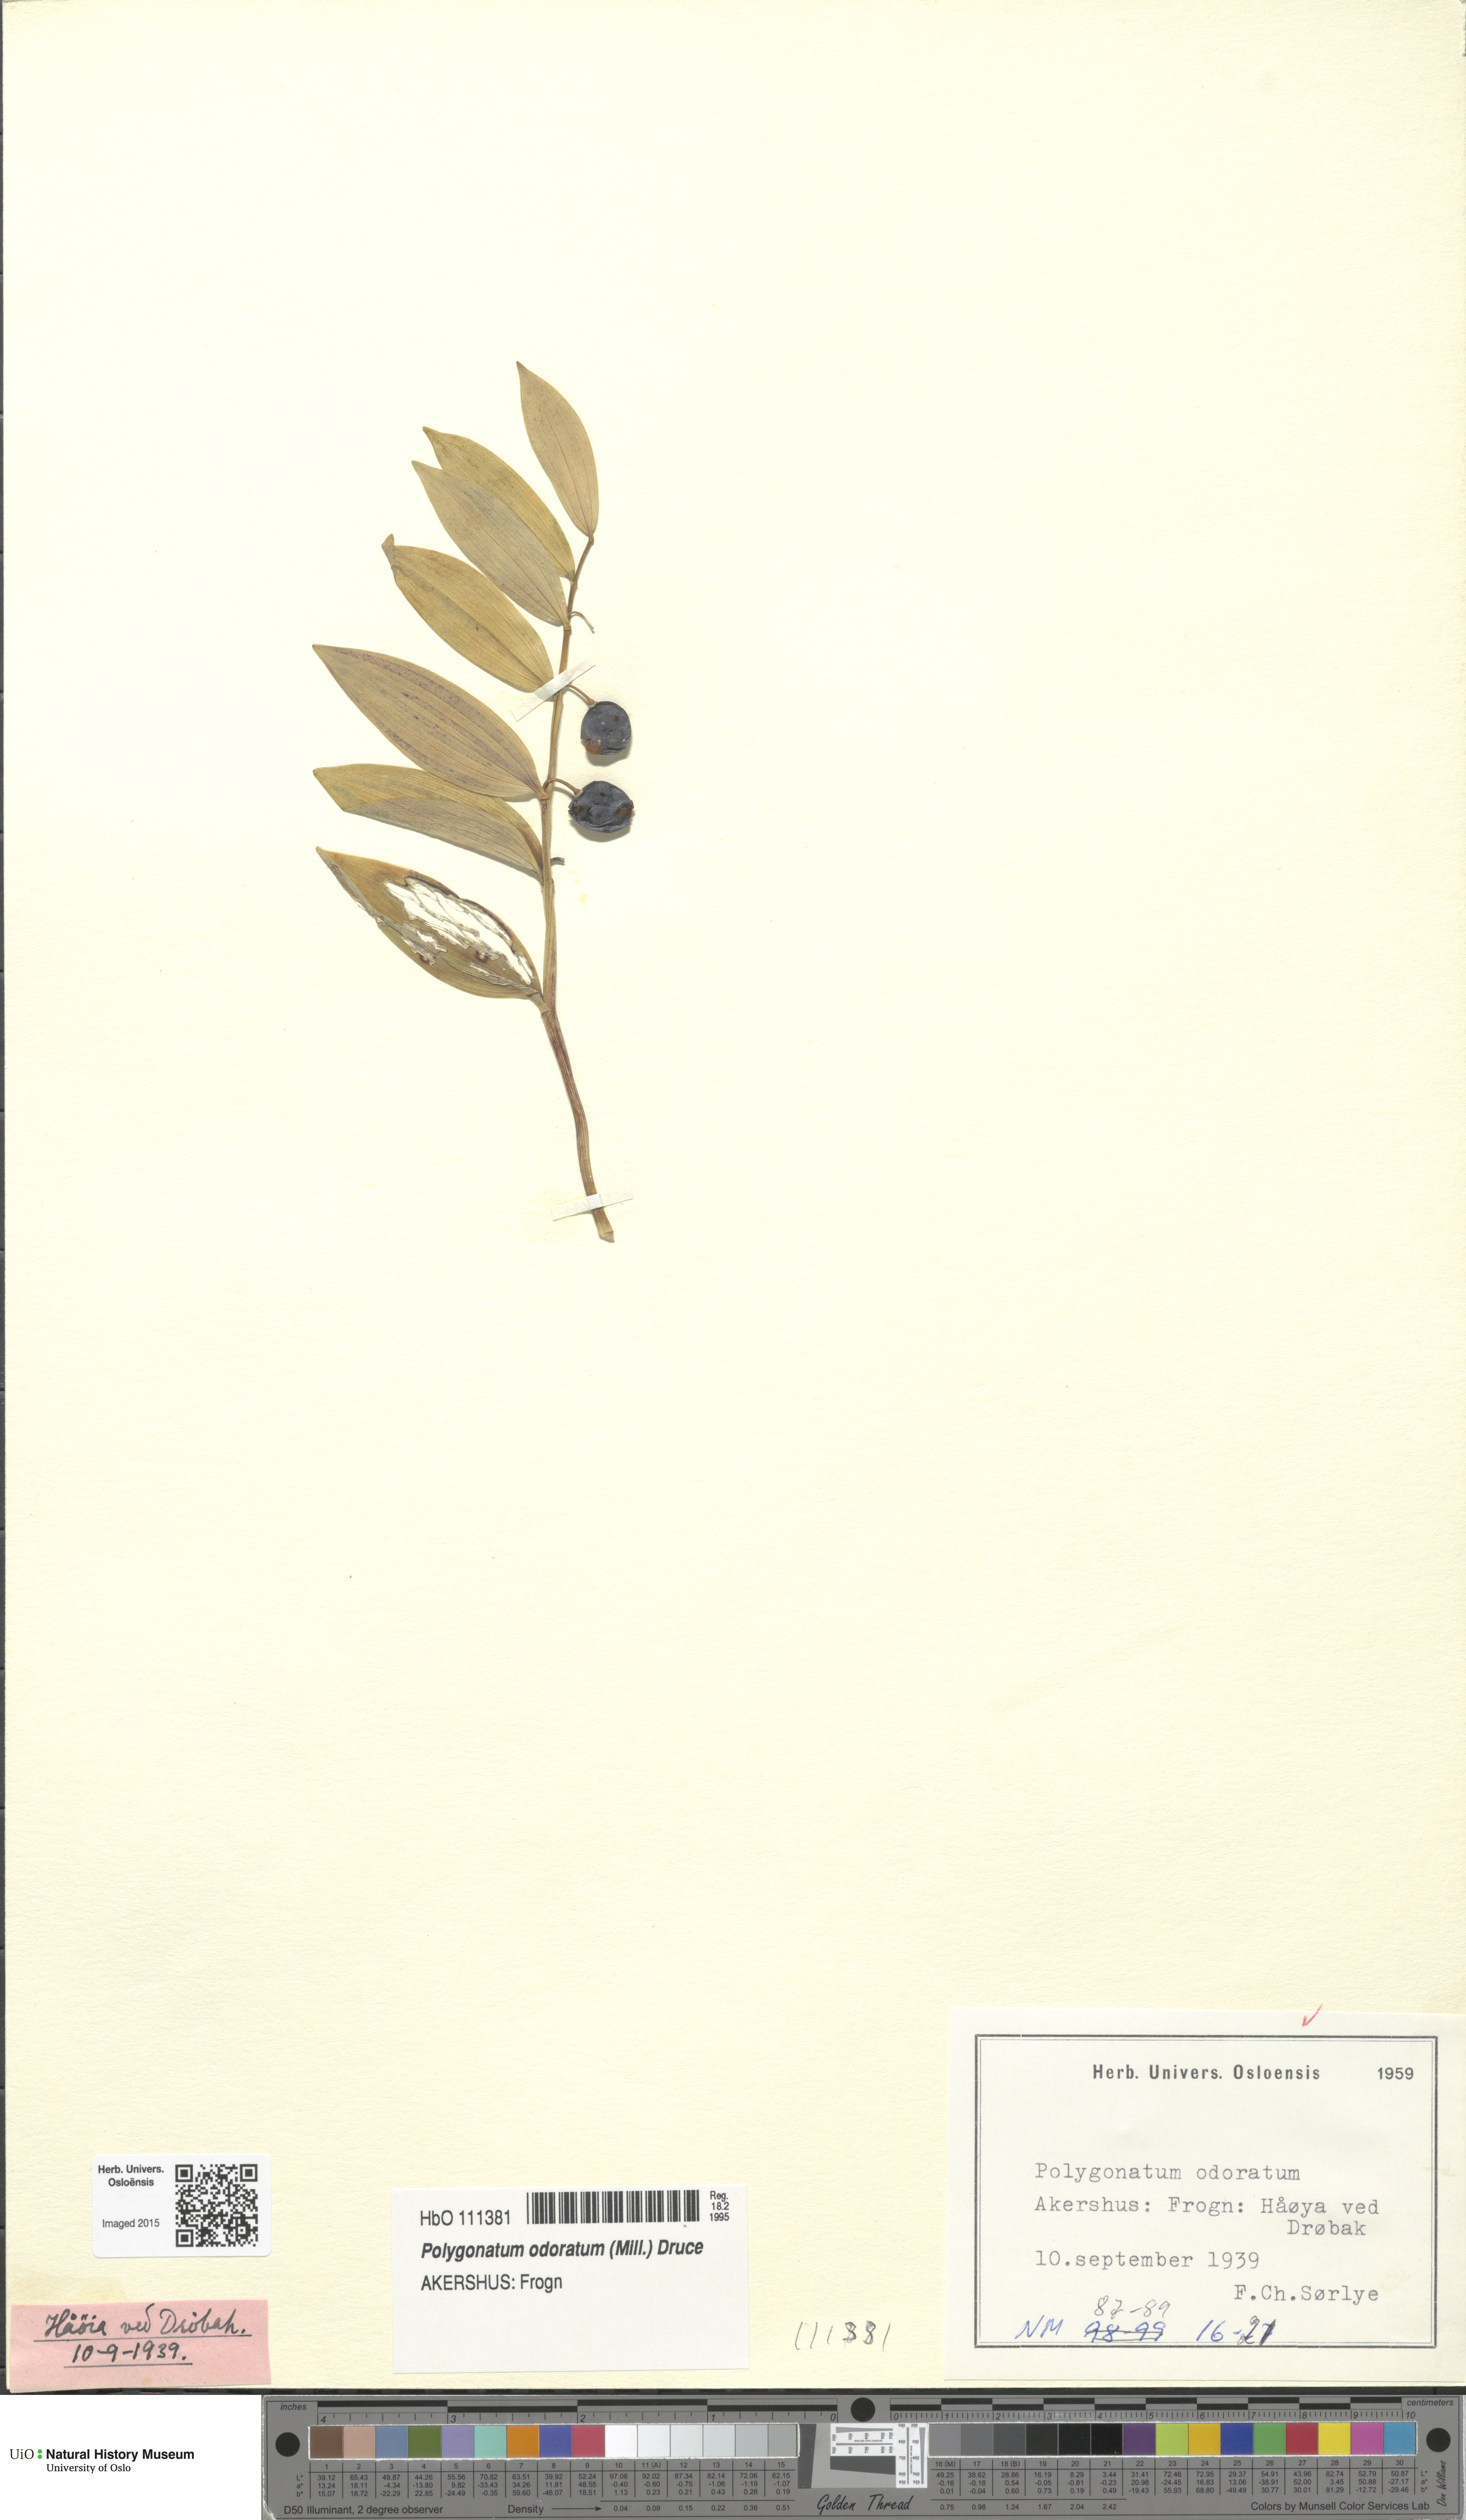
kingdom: Plantae
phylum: Tracheophyta
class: Liliopsida
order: Asparagales
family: Asparagaceae
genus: Polygonatum
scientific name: Polygonatum odoratum
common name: Angular solomon's-seal
